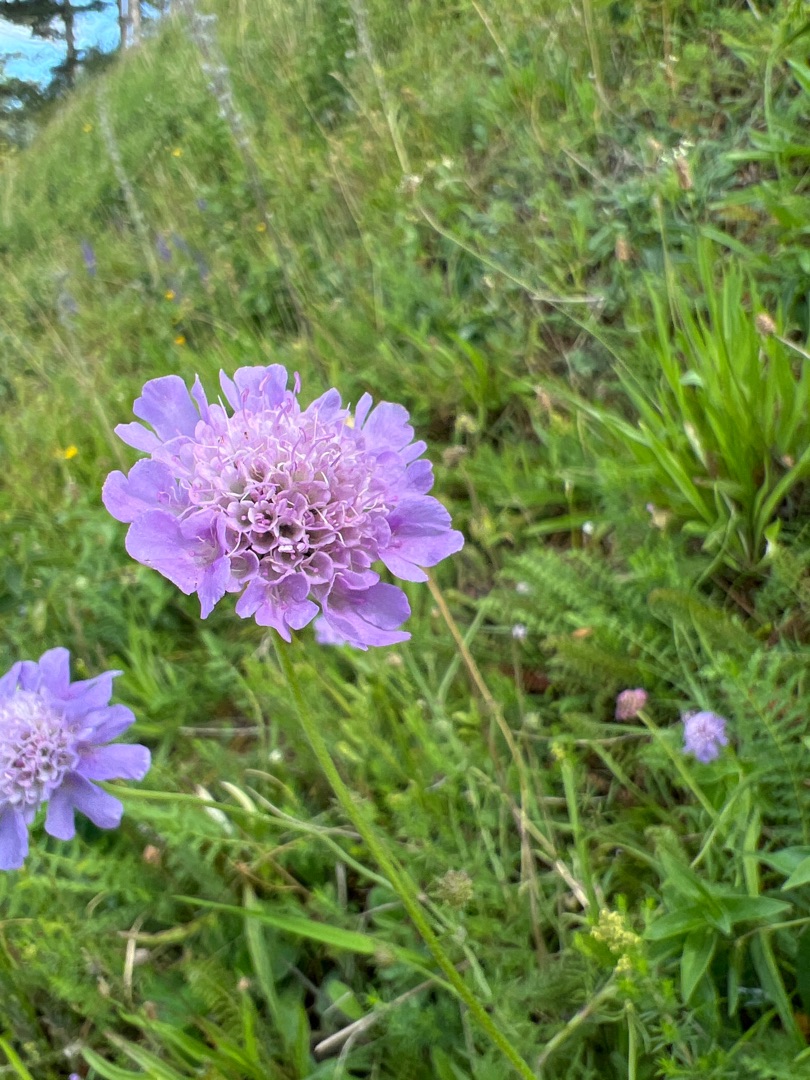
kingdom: Plantae
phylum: Tracheophyta
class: Magnoliopsida
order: Dipsacales
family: Caprifoliaceae
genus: Scabiosa
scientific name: Scabiosa columbaria
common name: Due-skabiose
